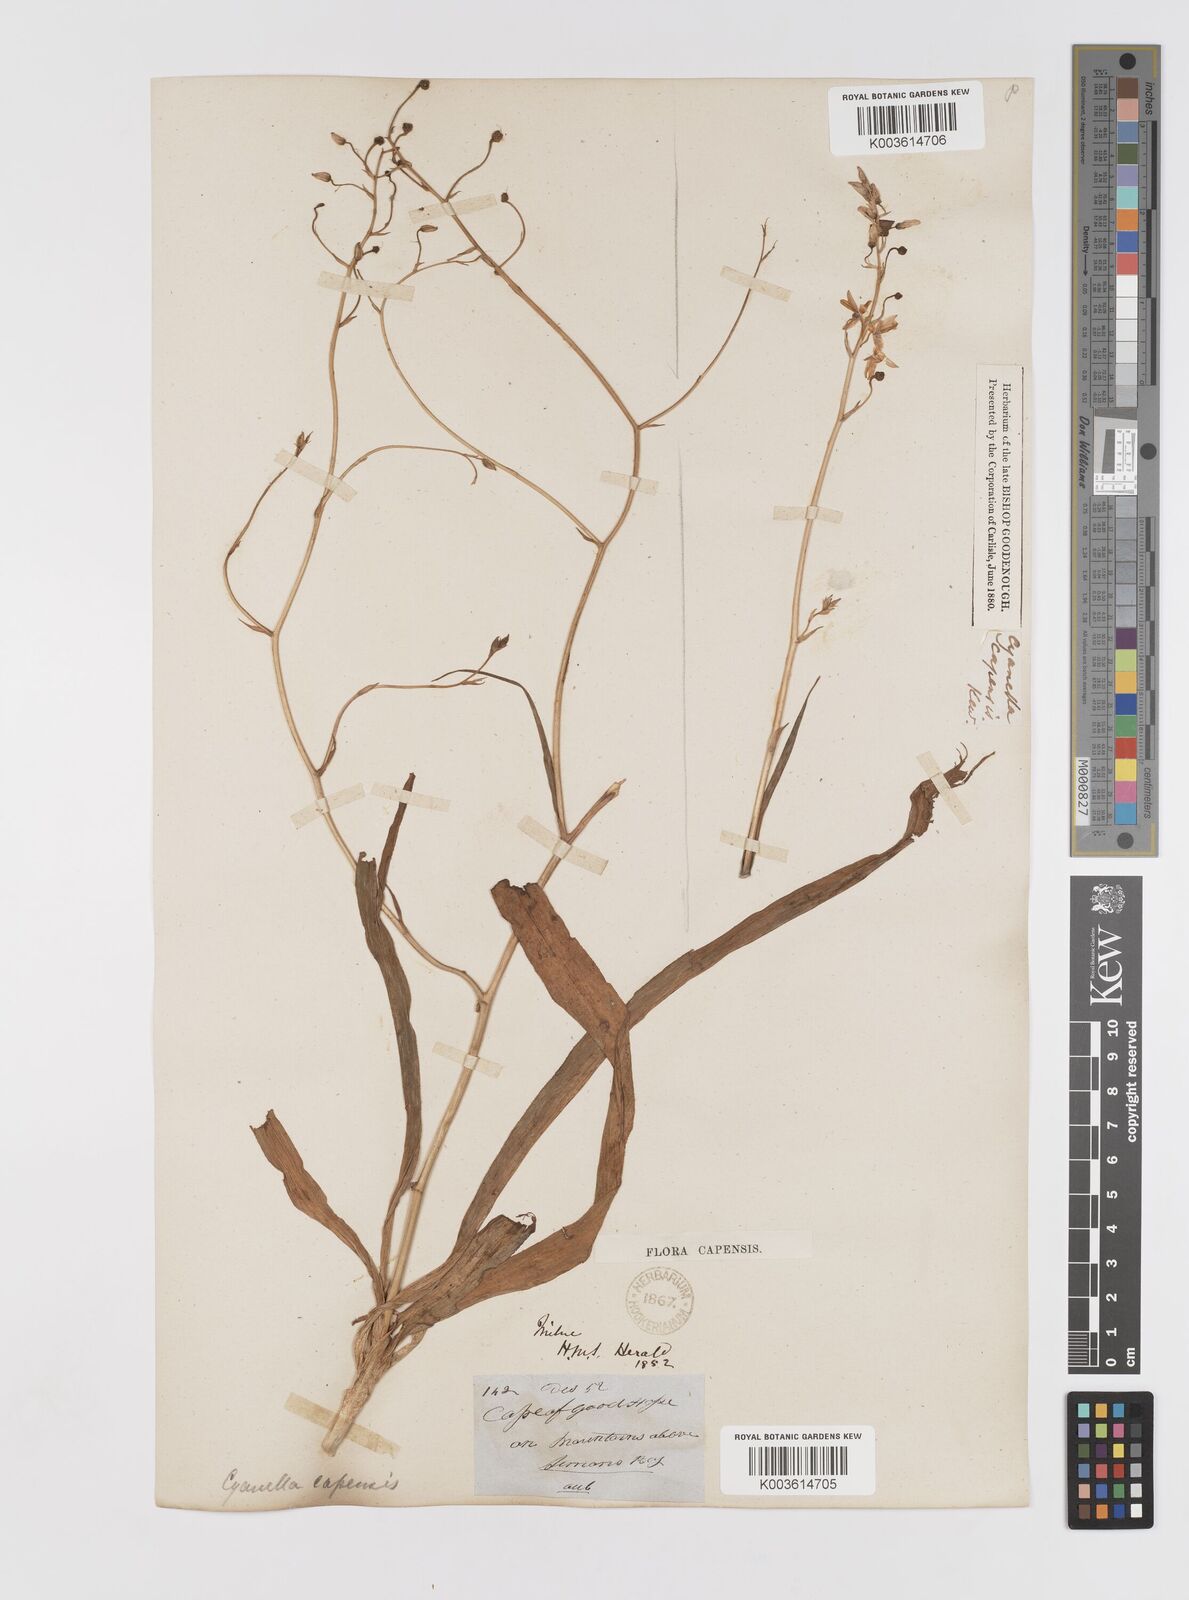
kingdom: Plantae
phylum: Tracheophyta
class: Liliopsida
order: Asparagales
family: Tecophilaeaceae
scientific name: Tecophilaeaceae
